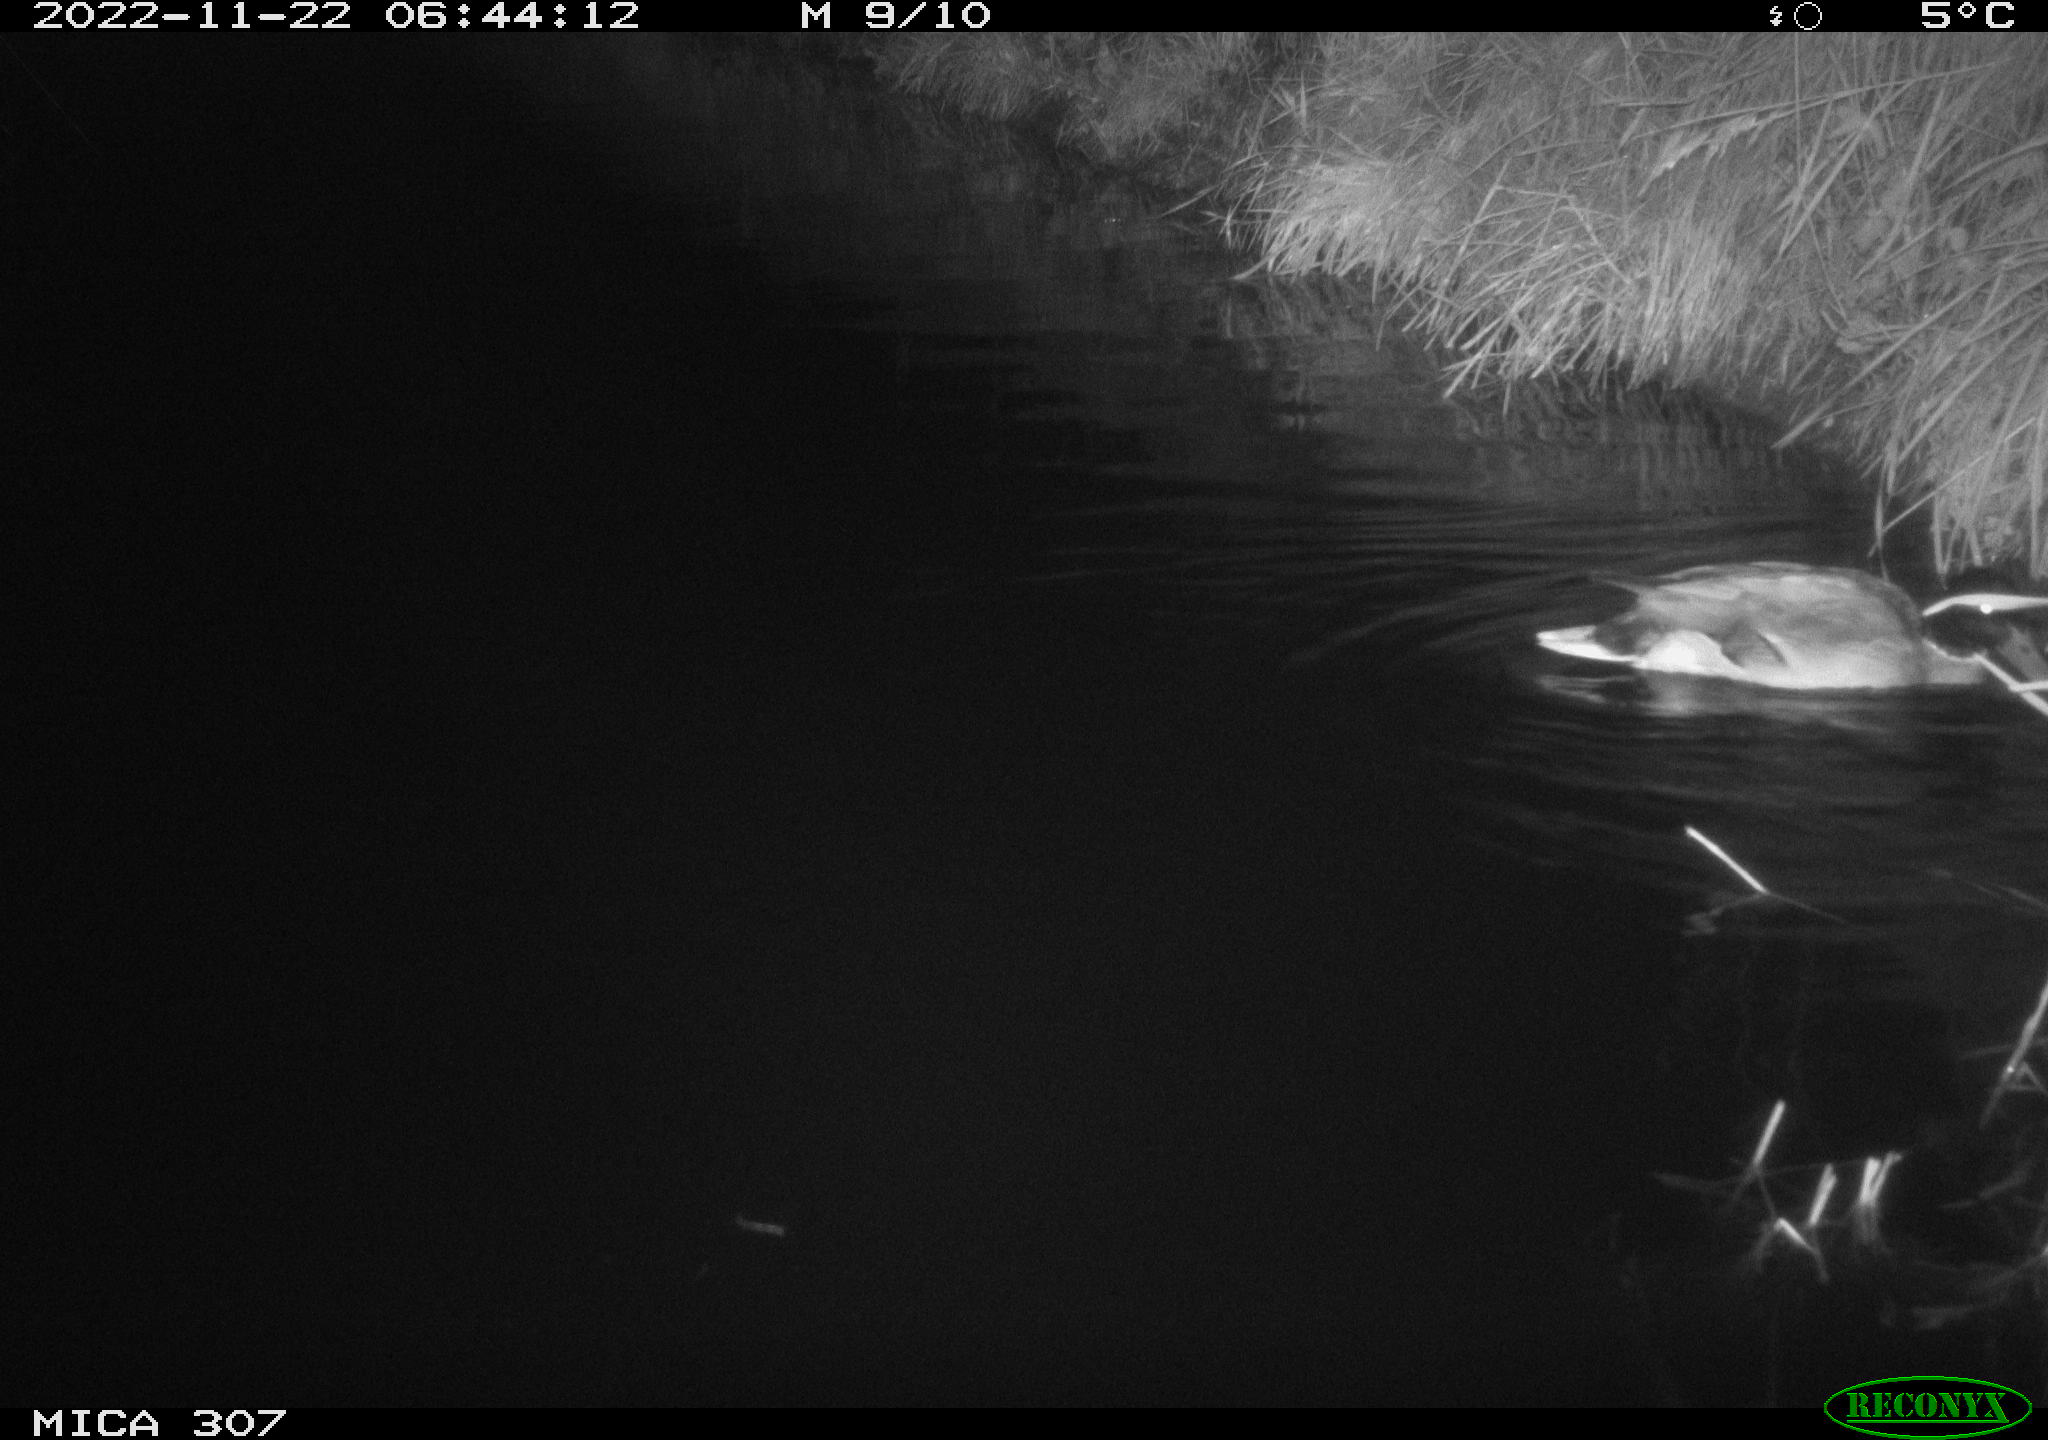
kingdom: Animalia
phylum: Chordata
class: Aves
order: Anseriformes
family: Anatidae
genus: Anas
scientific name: Anas
